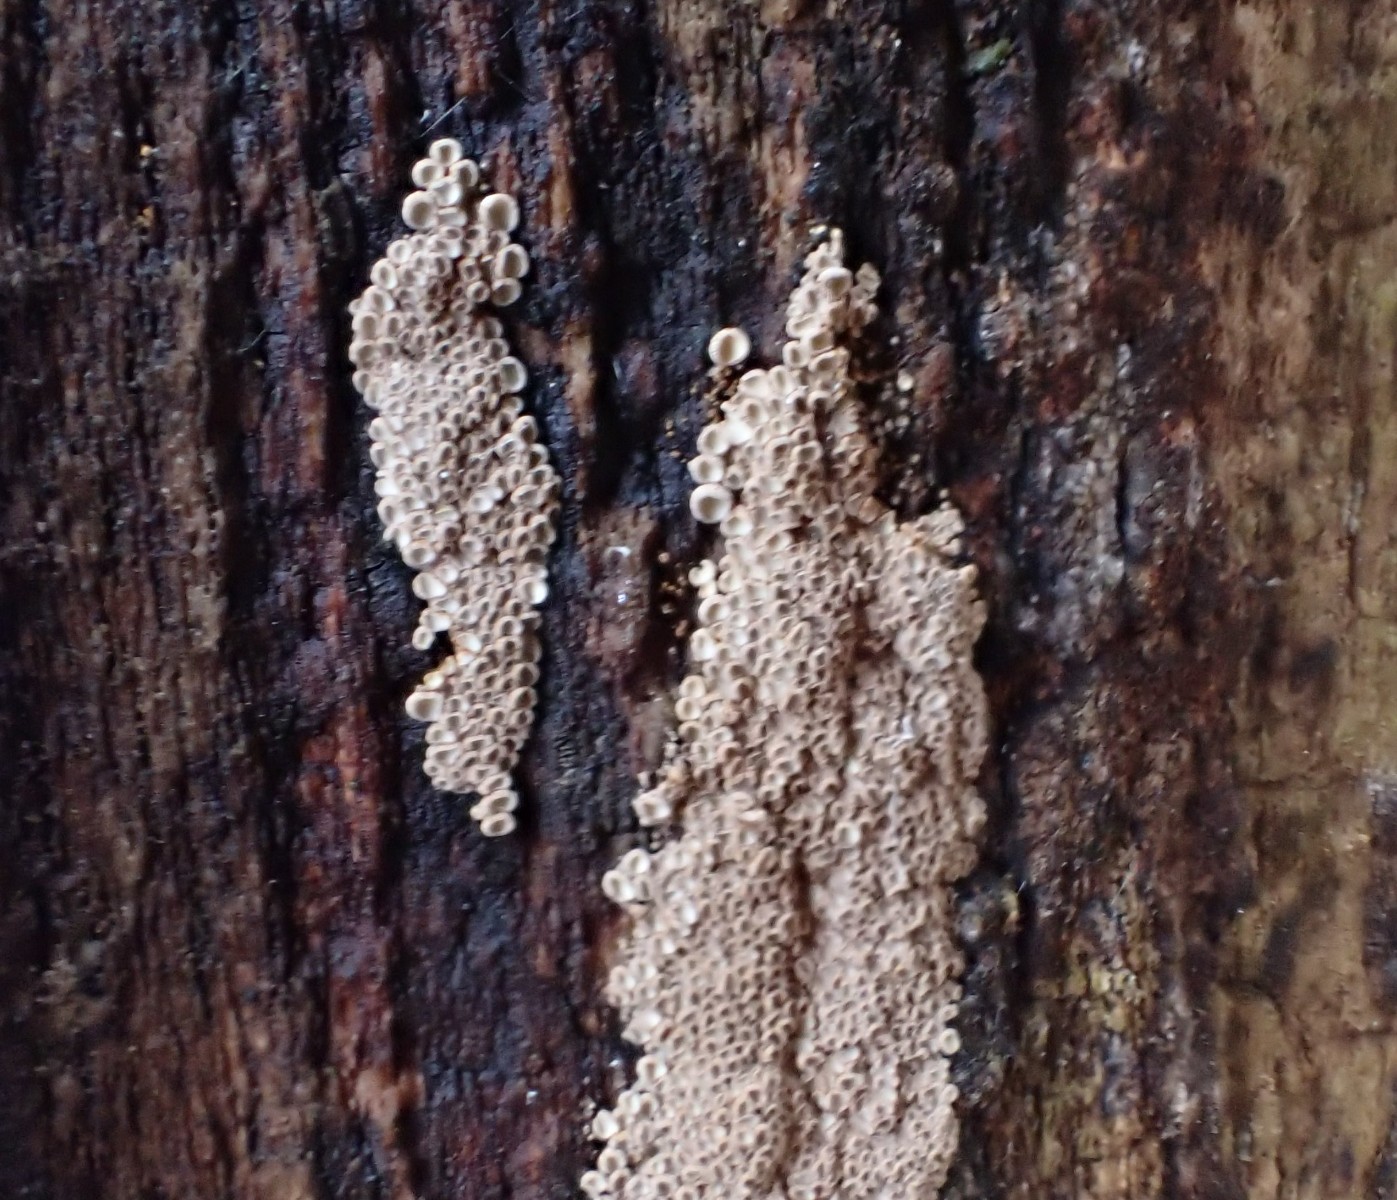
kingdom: Fungi
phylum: Basidiomycota
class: Agaricomycetes
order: Agaricales
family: Niaceae
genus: Merismodes
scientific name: Merismodes anomala
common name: almindelig læderskål
